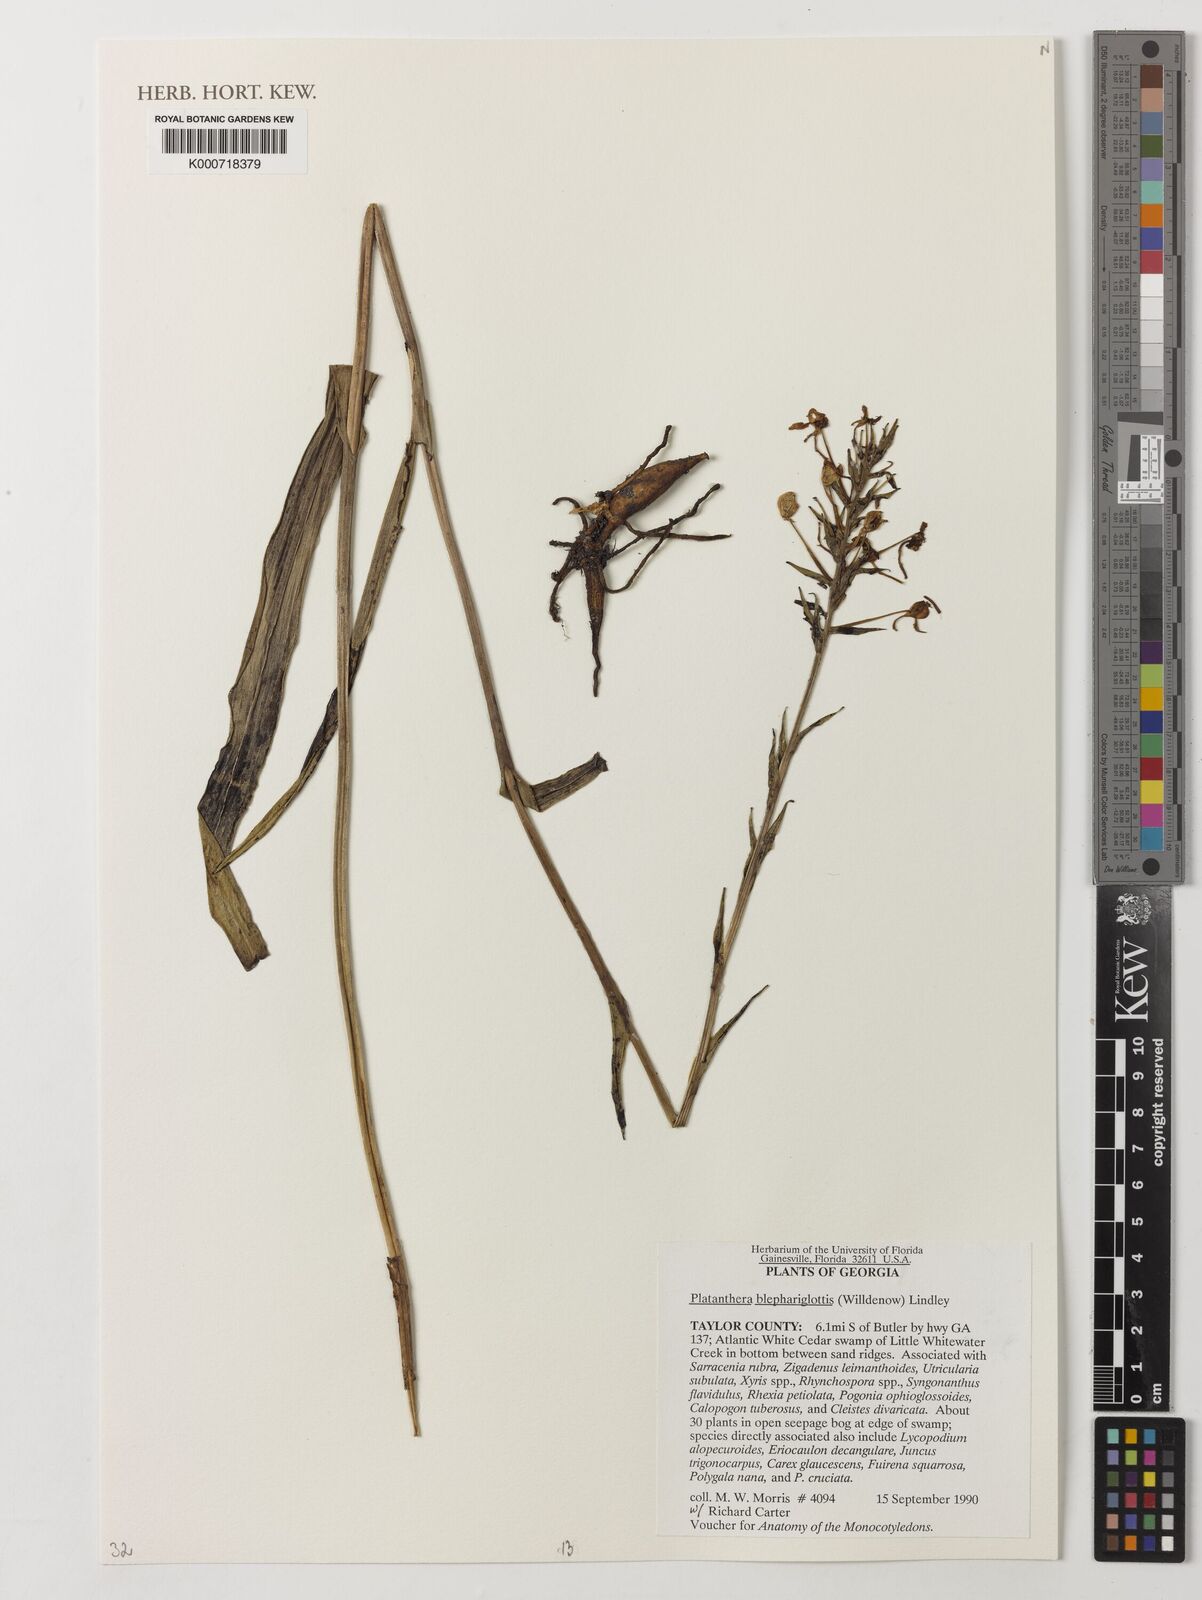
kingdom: Plantae
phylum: Tracheophyta
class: Liliopsida
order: Asparagales
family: Orchidaceae
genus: Platanthera
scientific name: Platanthera blephariglottis
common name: White fringed orchid
